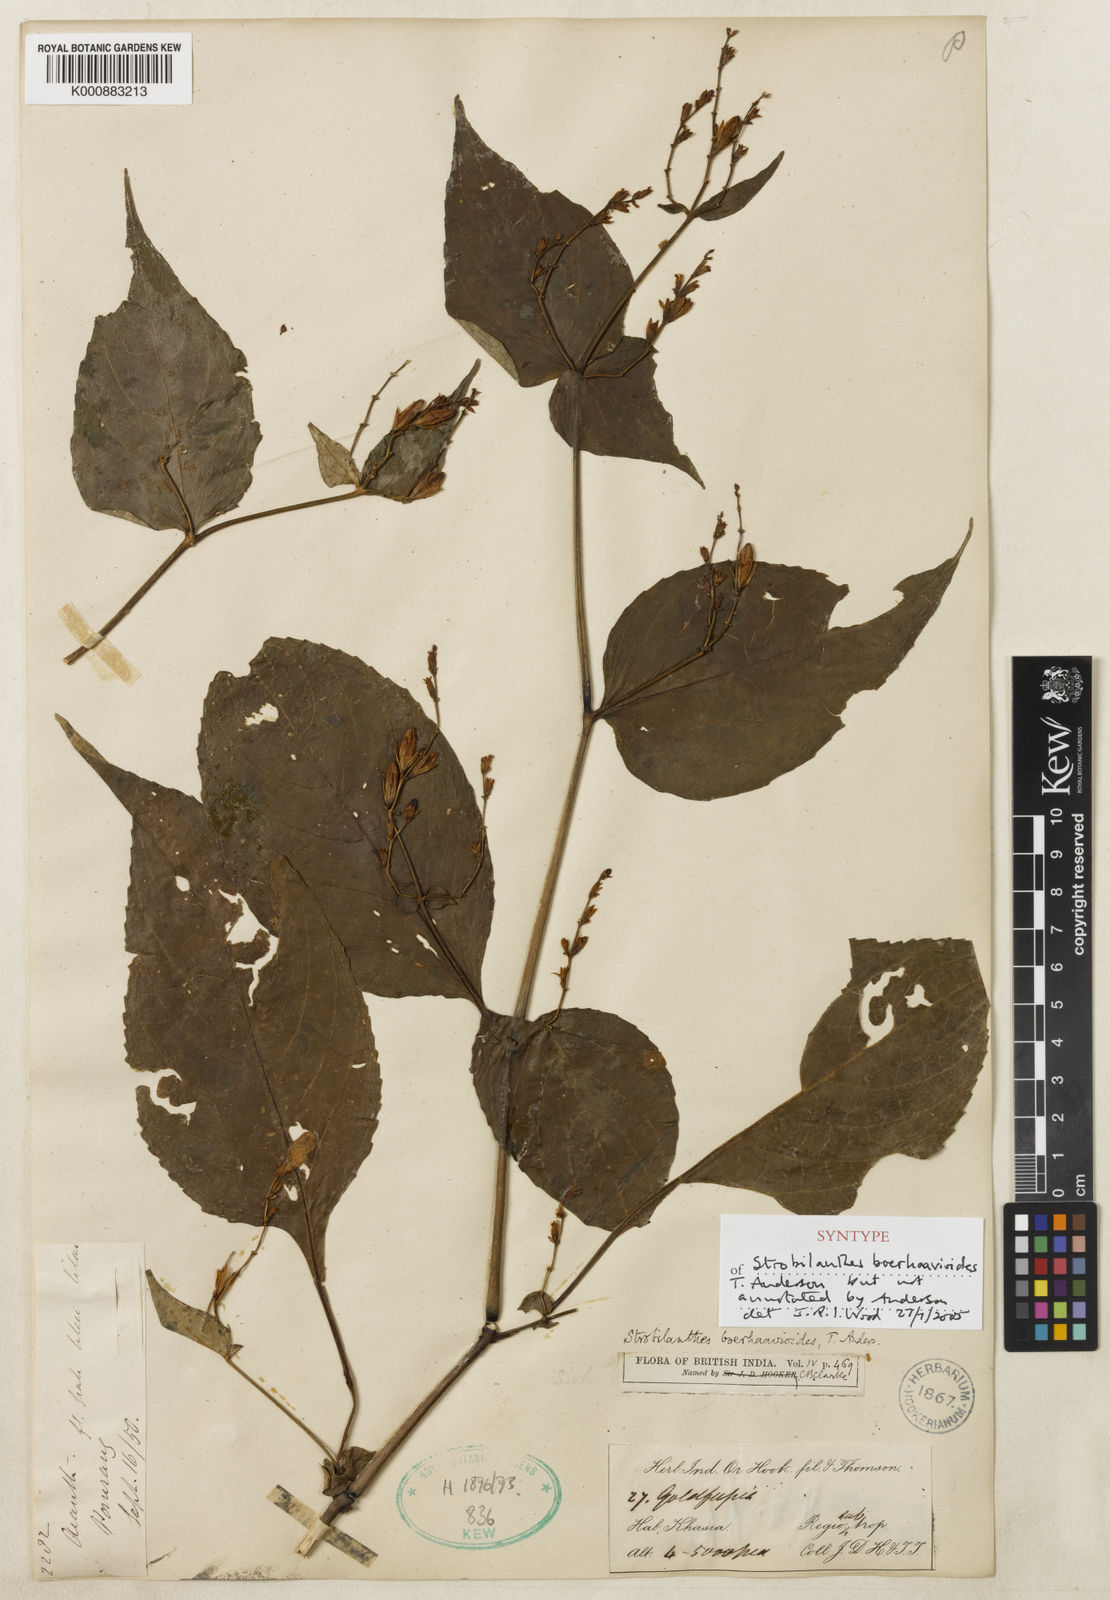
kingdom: Plantae
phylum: Tracheophyta
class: Magnoliopsida
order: Lamiales
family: Acanthaceae
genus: Strobilanthes
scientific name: Strobilanthes
